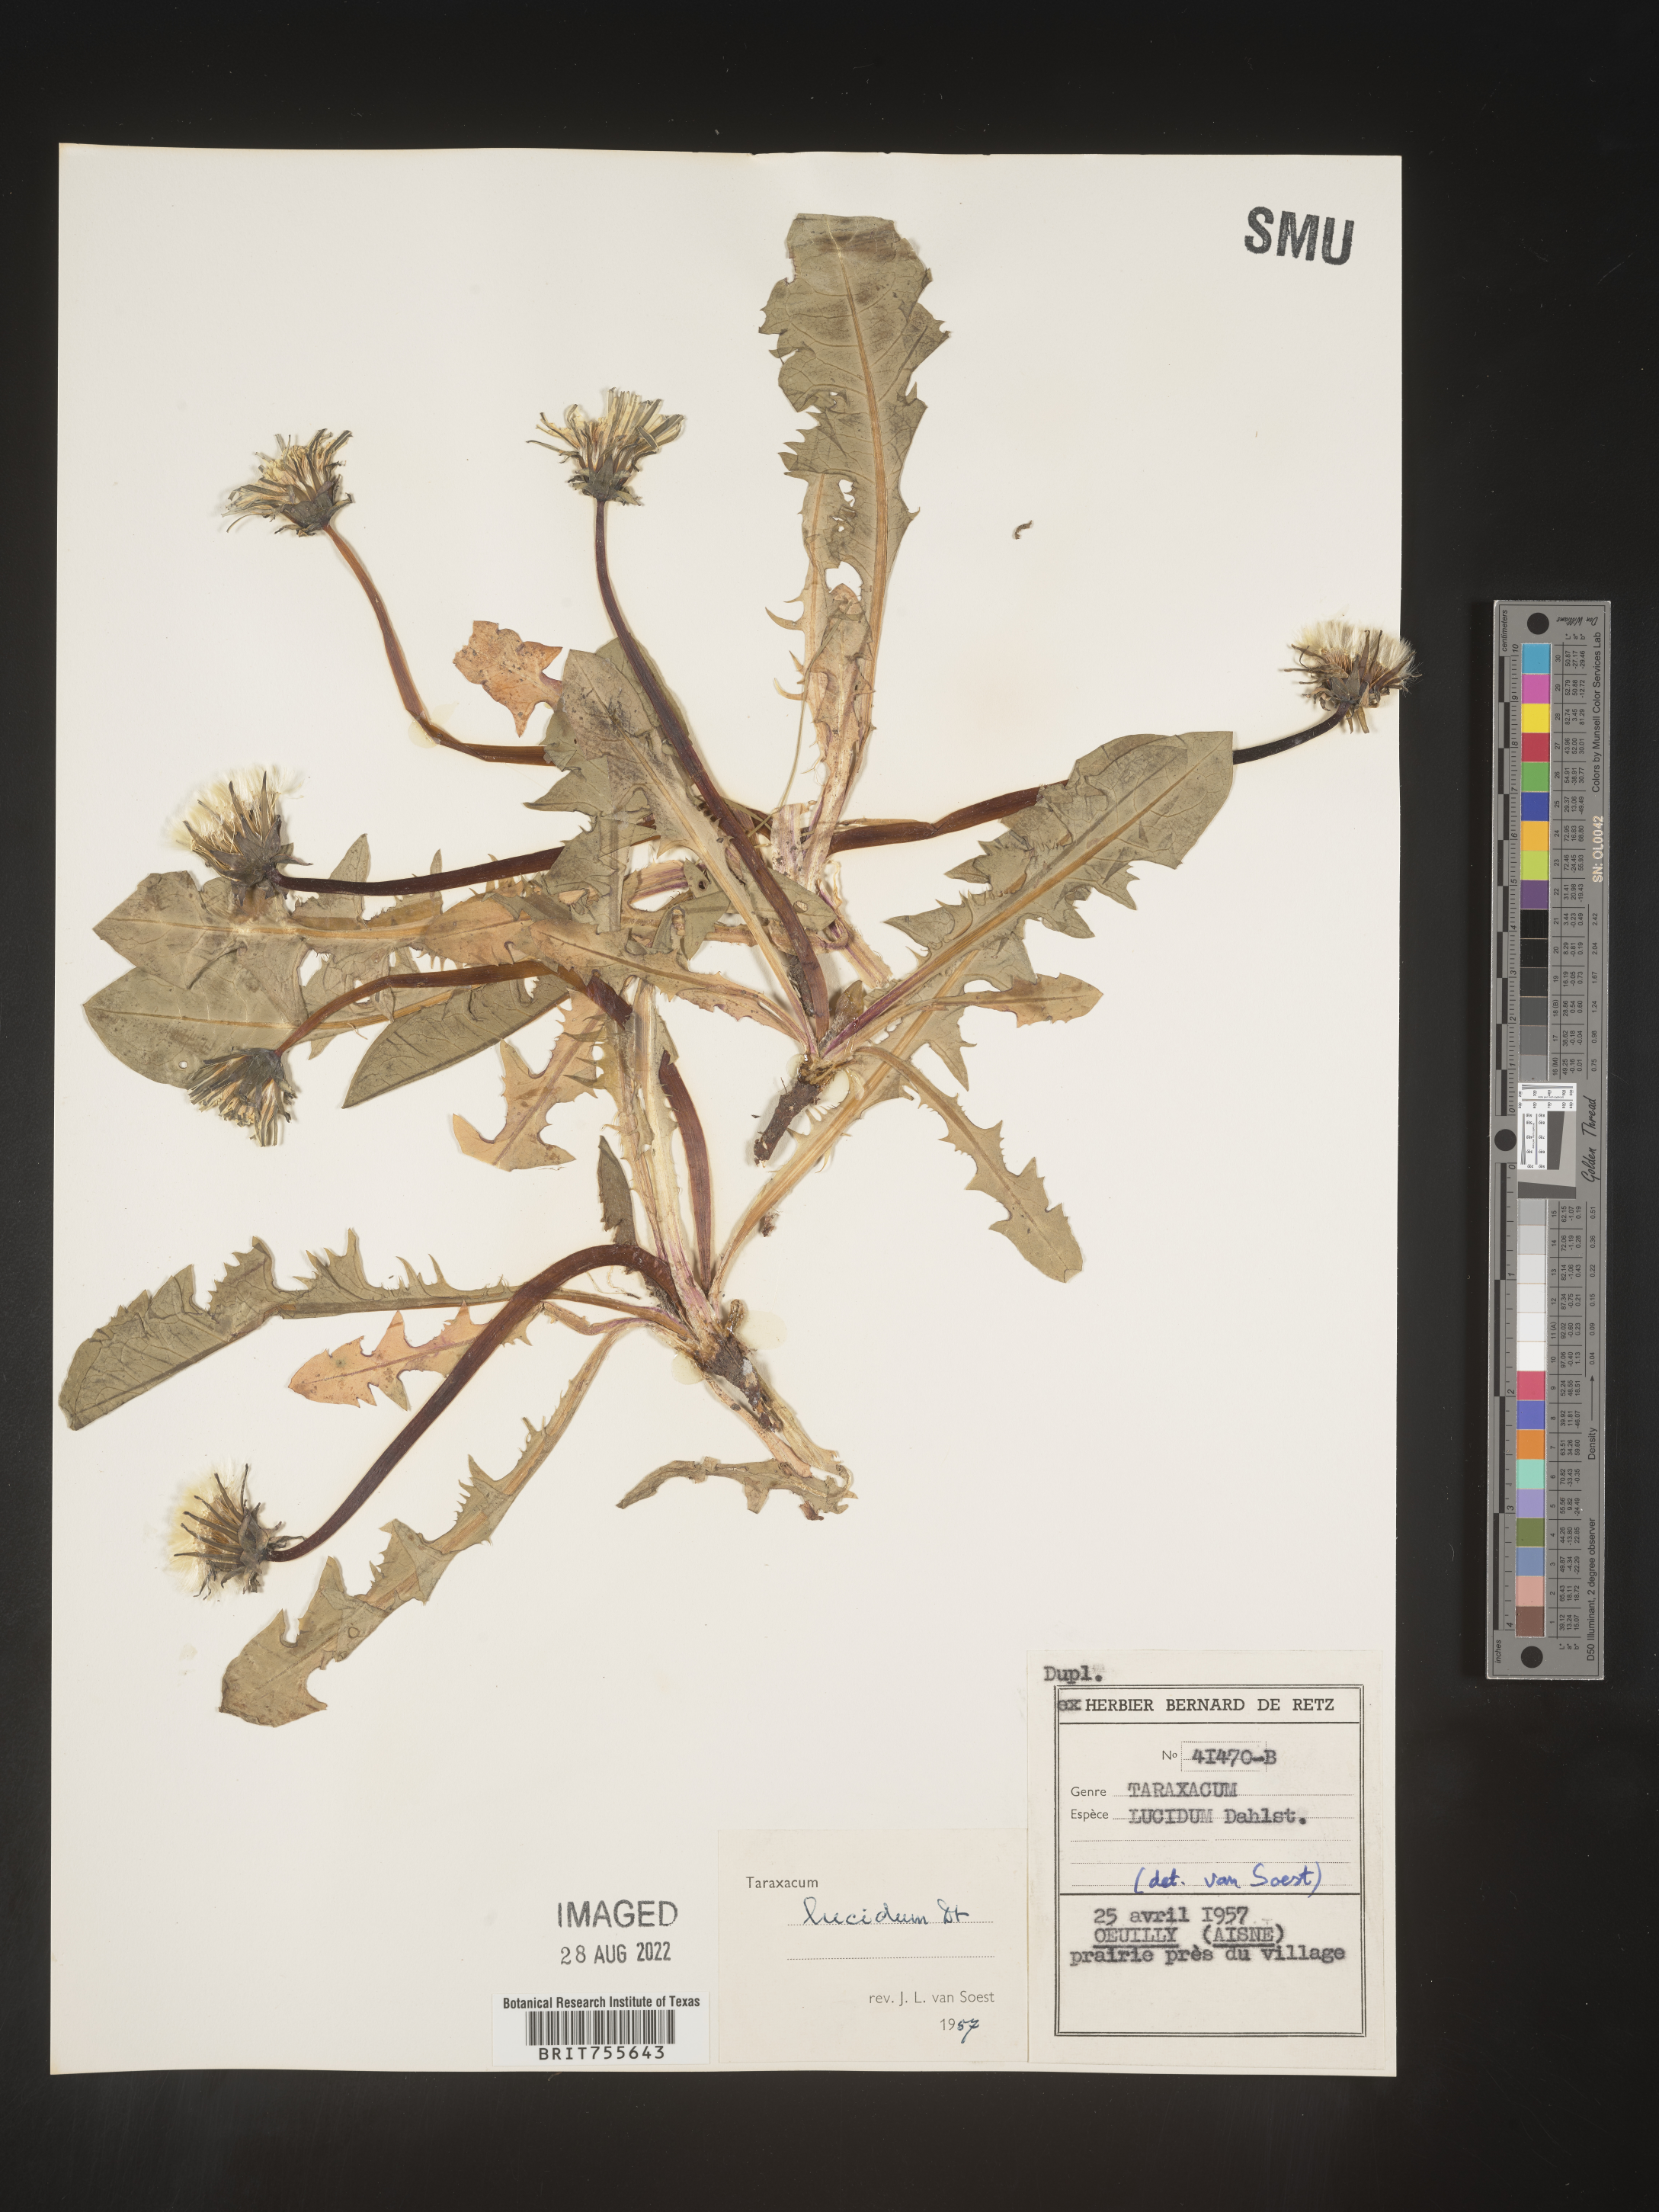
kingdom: Plantae
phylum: Tracheophyta
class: Magnoliopsida
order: Asterales
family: Asteraceae
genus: Taraxacum
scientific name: Taraxacum
